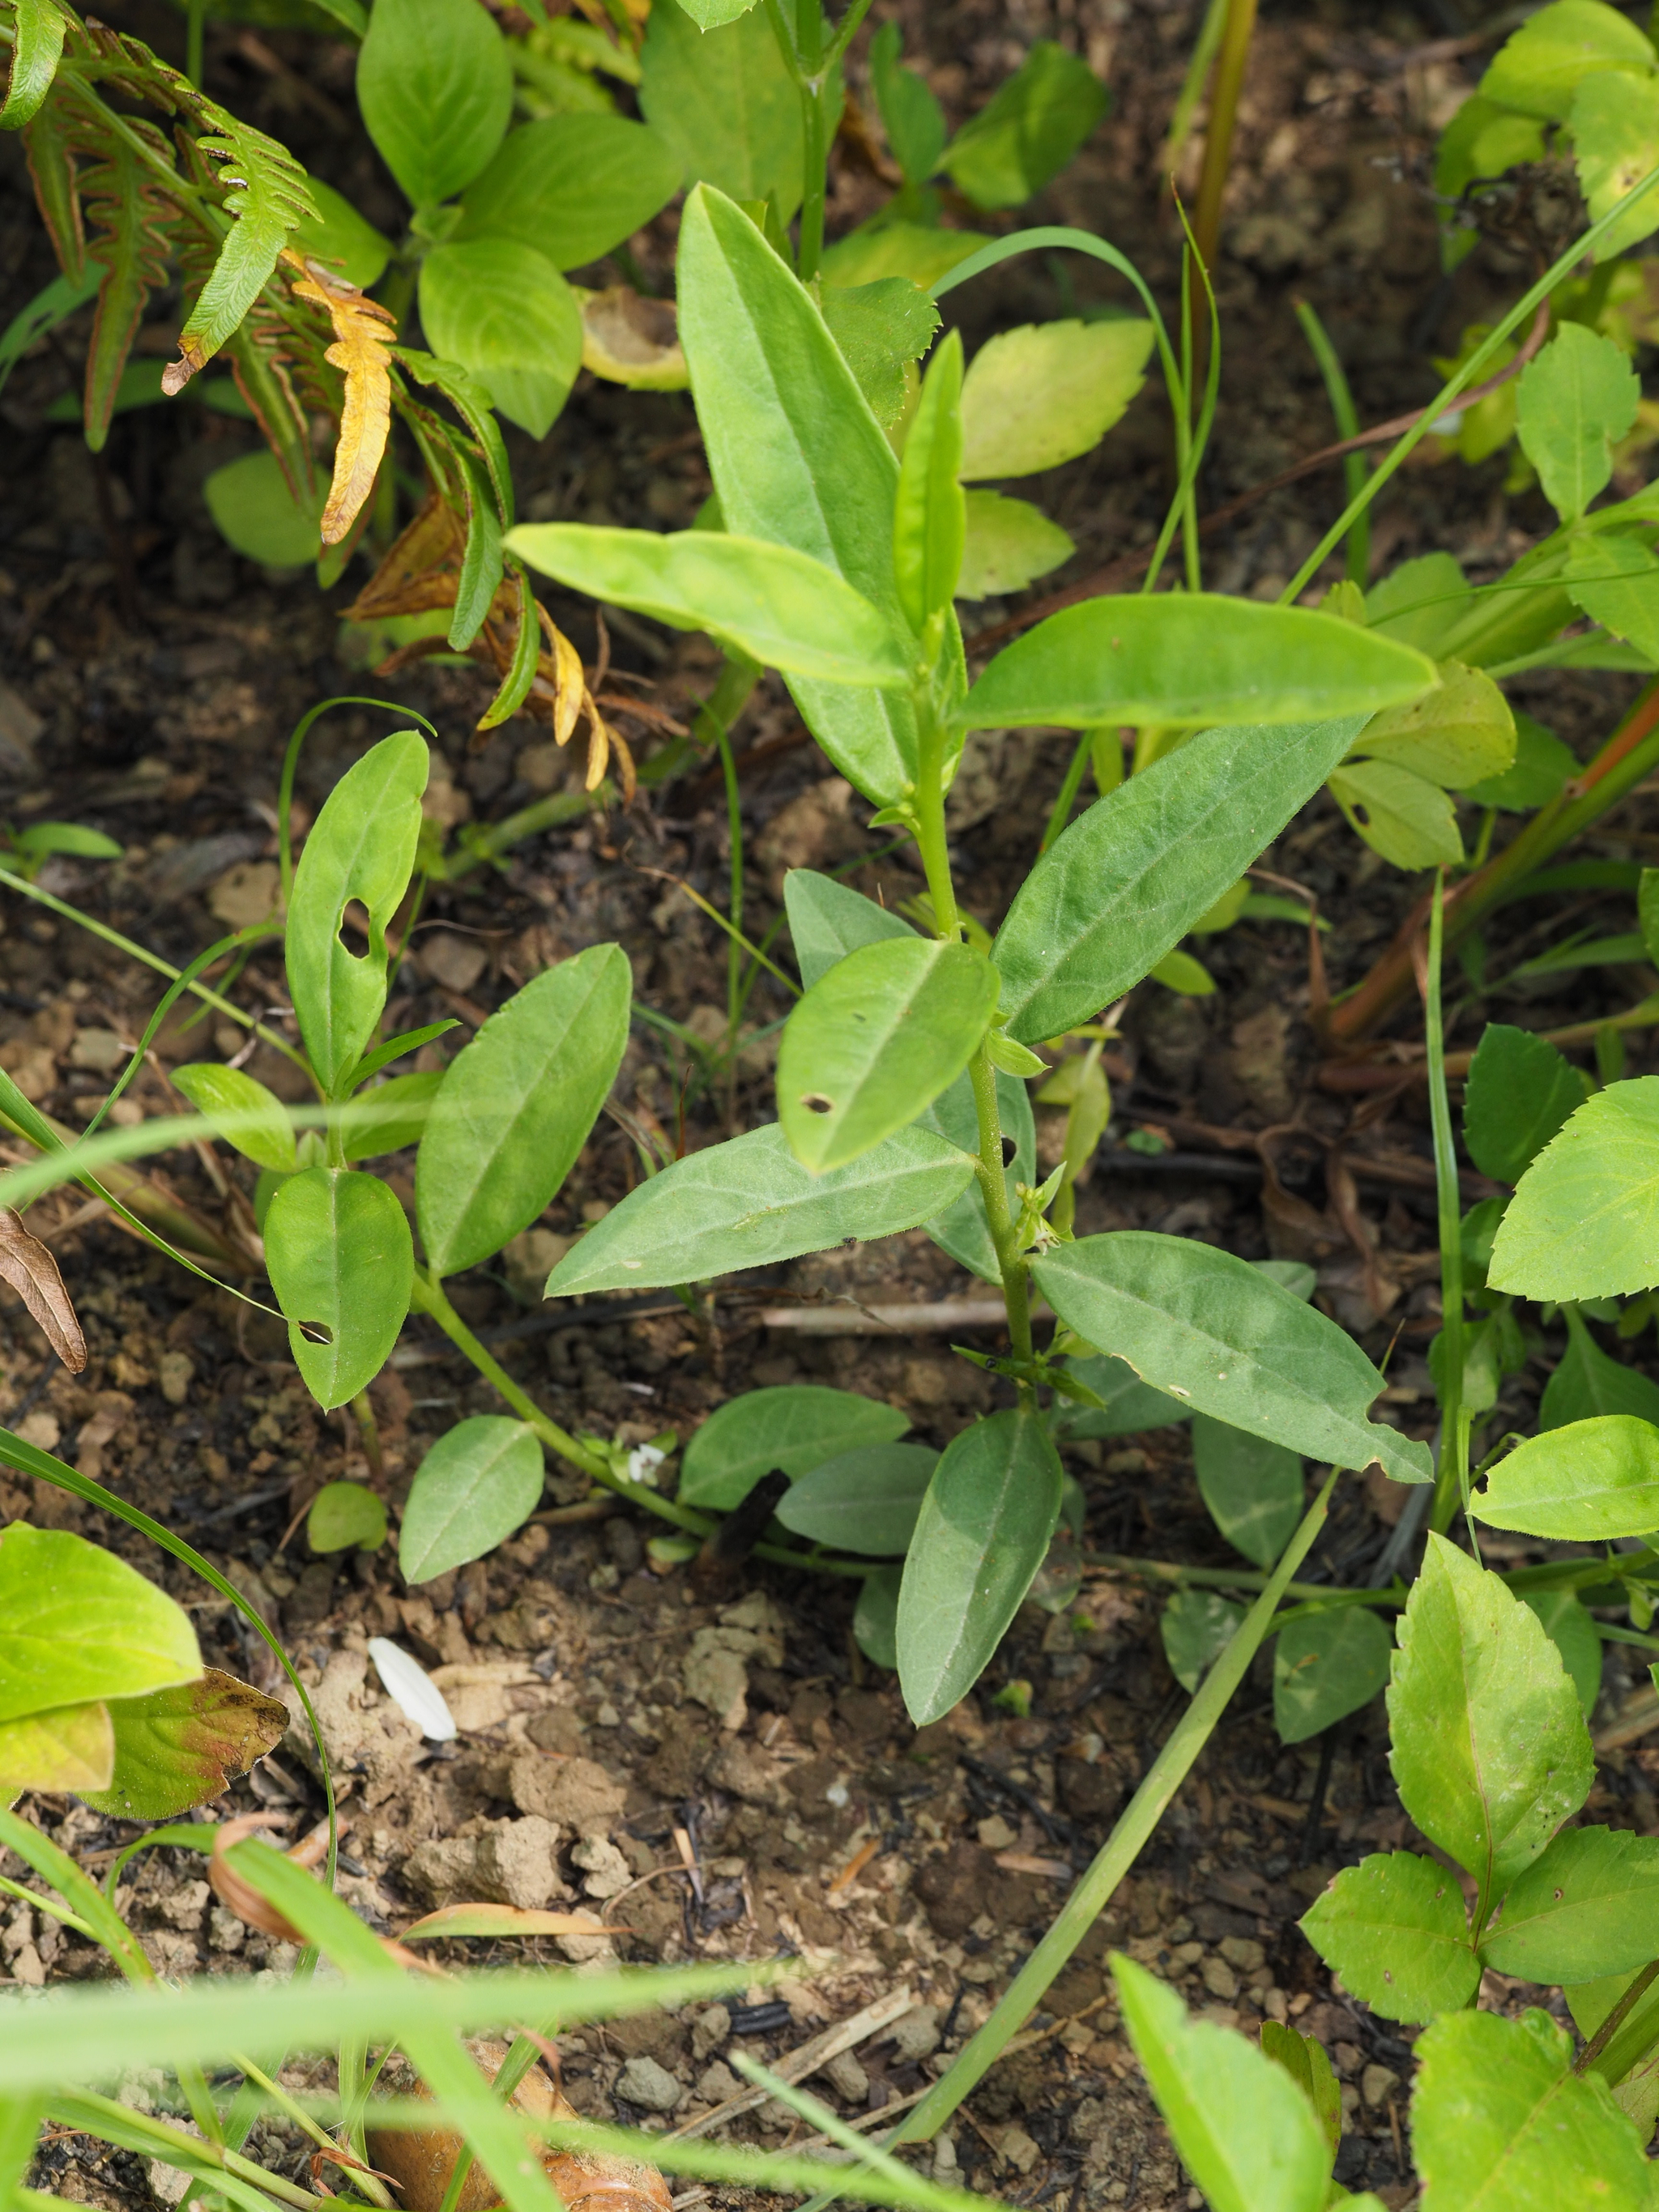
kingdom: Plantae
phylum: Tracheophyta
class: Magnoliopsida
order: Fabales
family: Polygalaceae
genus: Polygala
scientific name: Polygala glomerata
